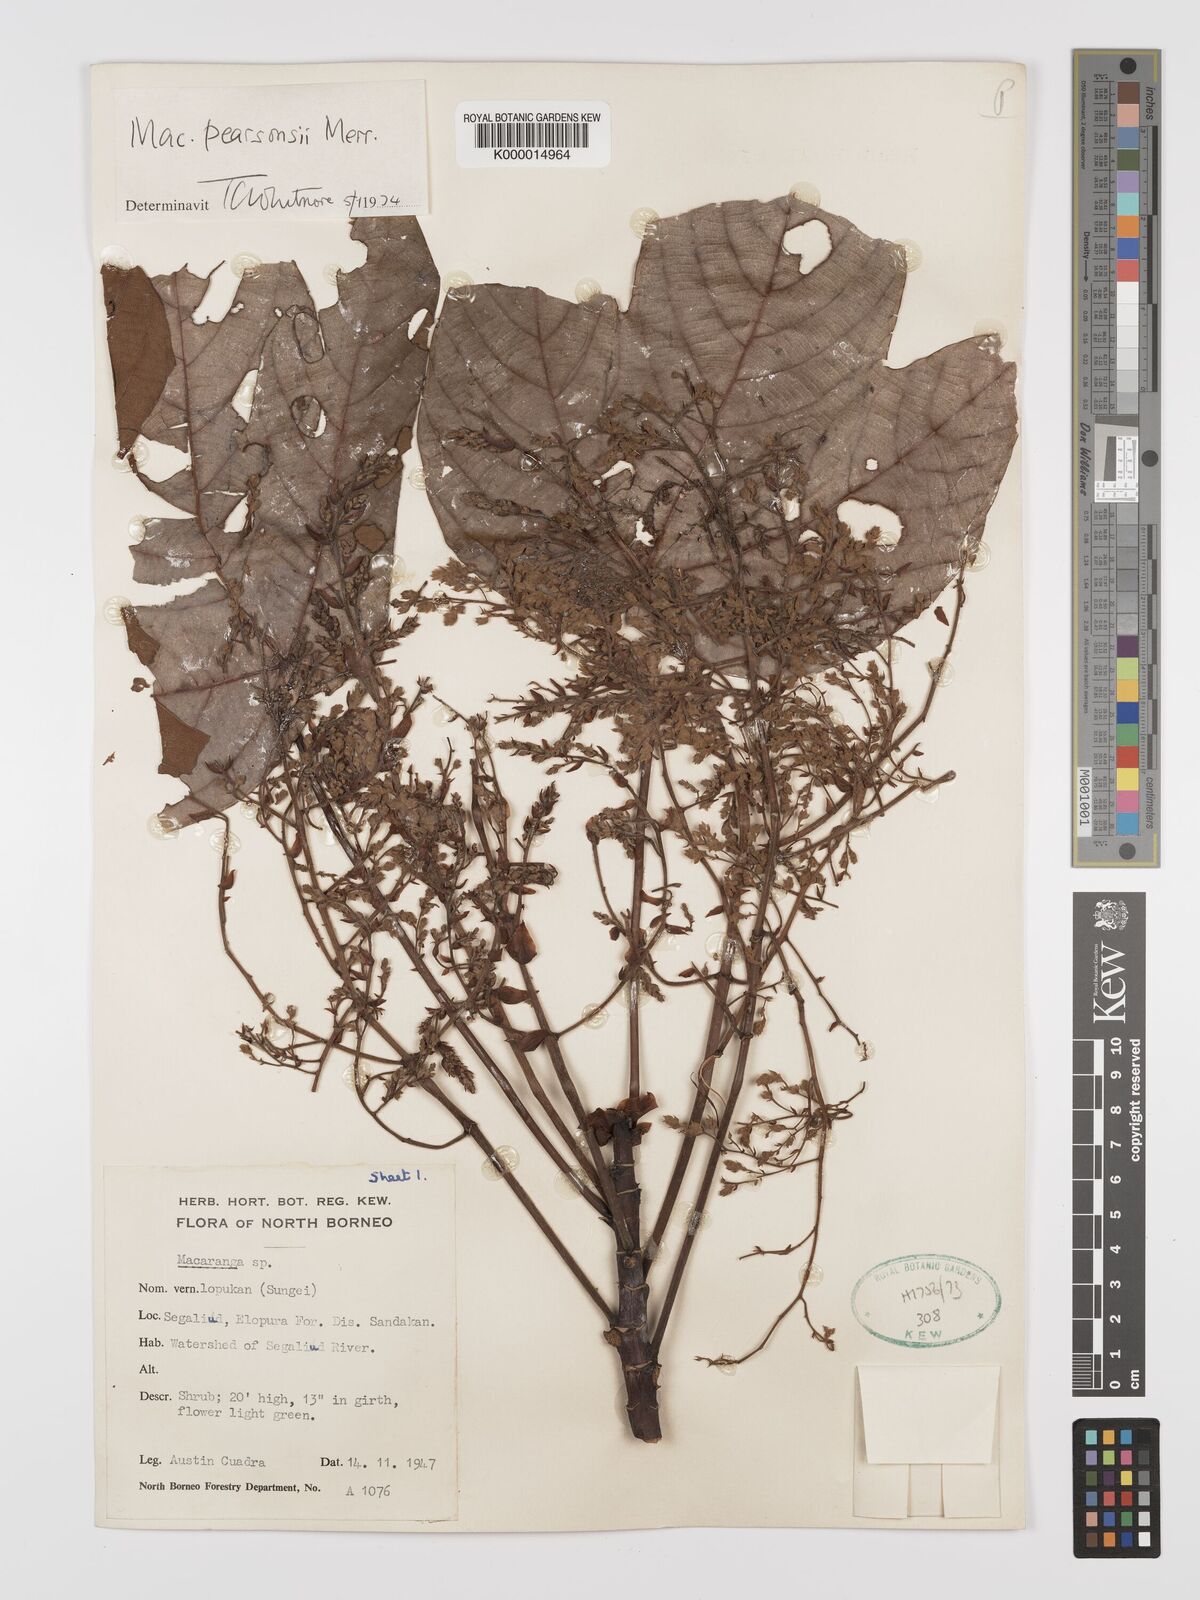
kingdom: Plantae
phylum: Tracheophyta
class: Magnoliopsida
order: Malpighiales
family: Euphorbiaceae
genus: Macaranga
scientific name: Macaranga pearsonii
